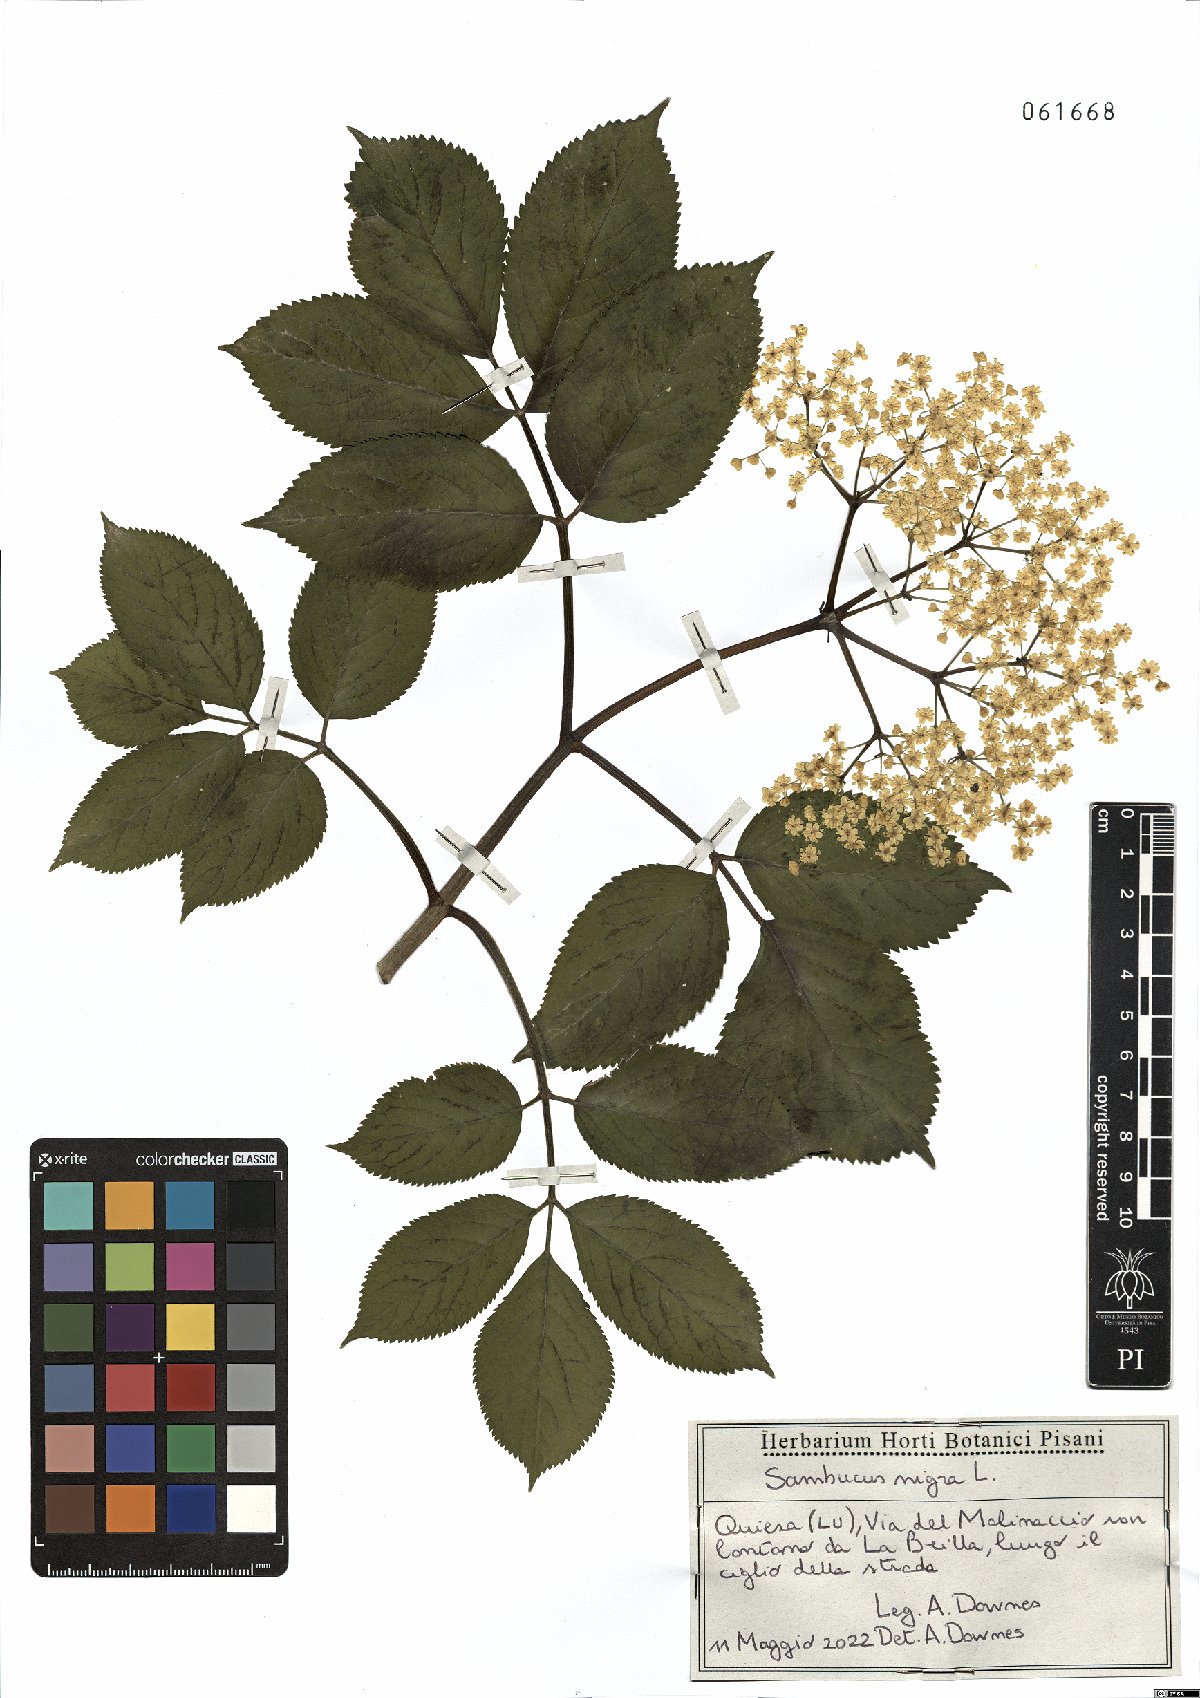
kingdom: Plantae
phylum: Tracheophyta
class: Magnoliopsida
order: Dipsacales
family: Viburnaceae
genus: Sambucus
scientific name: Sambucus nigra
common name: Elder
